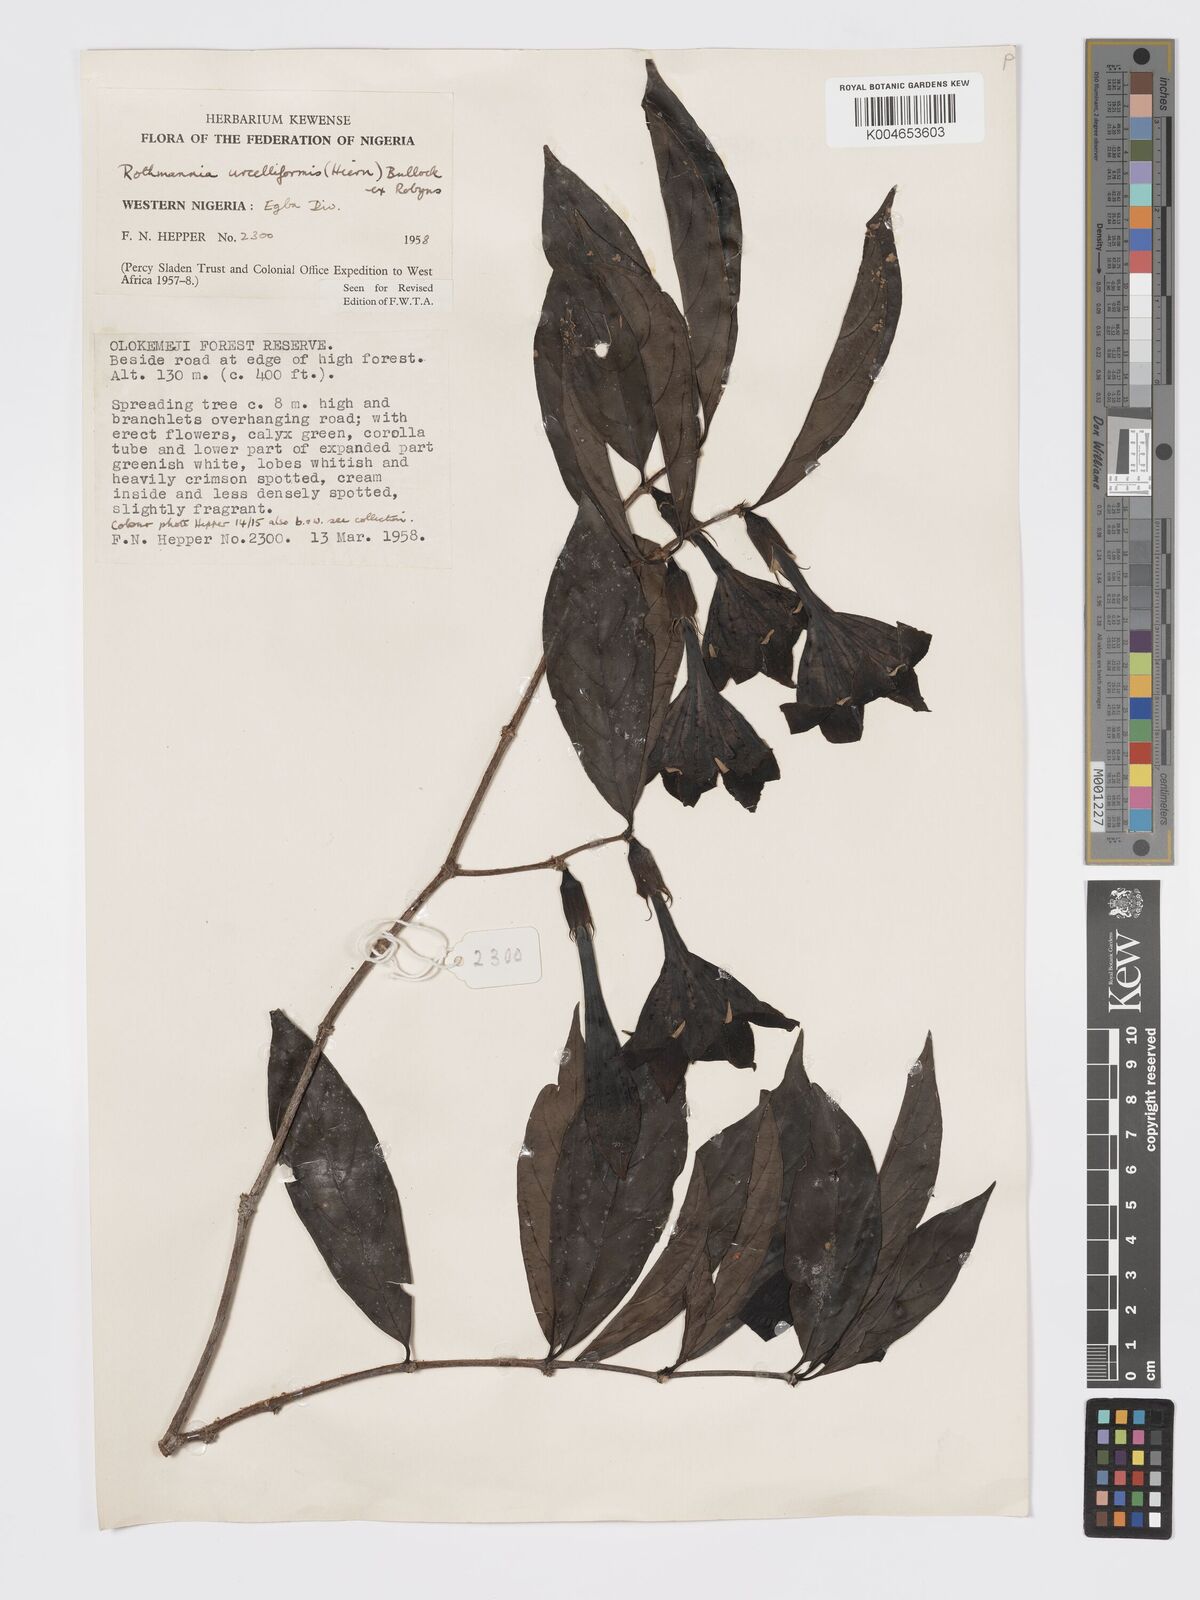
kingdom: Plantae
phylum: Tracheophyta
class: Magnoliopsida
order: Gentianales
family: Rubiaceae
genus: Rothmannia
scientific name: Rothmannia urcelliformis
